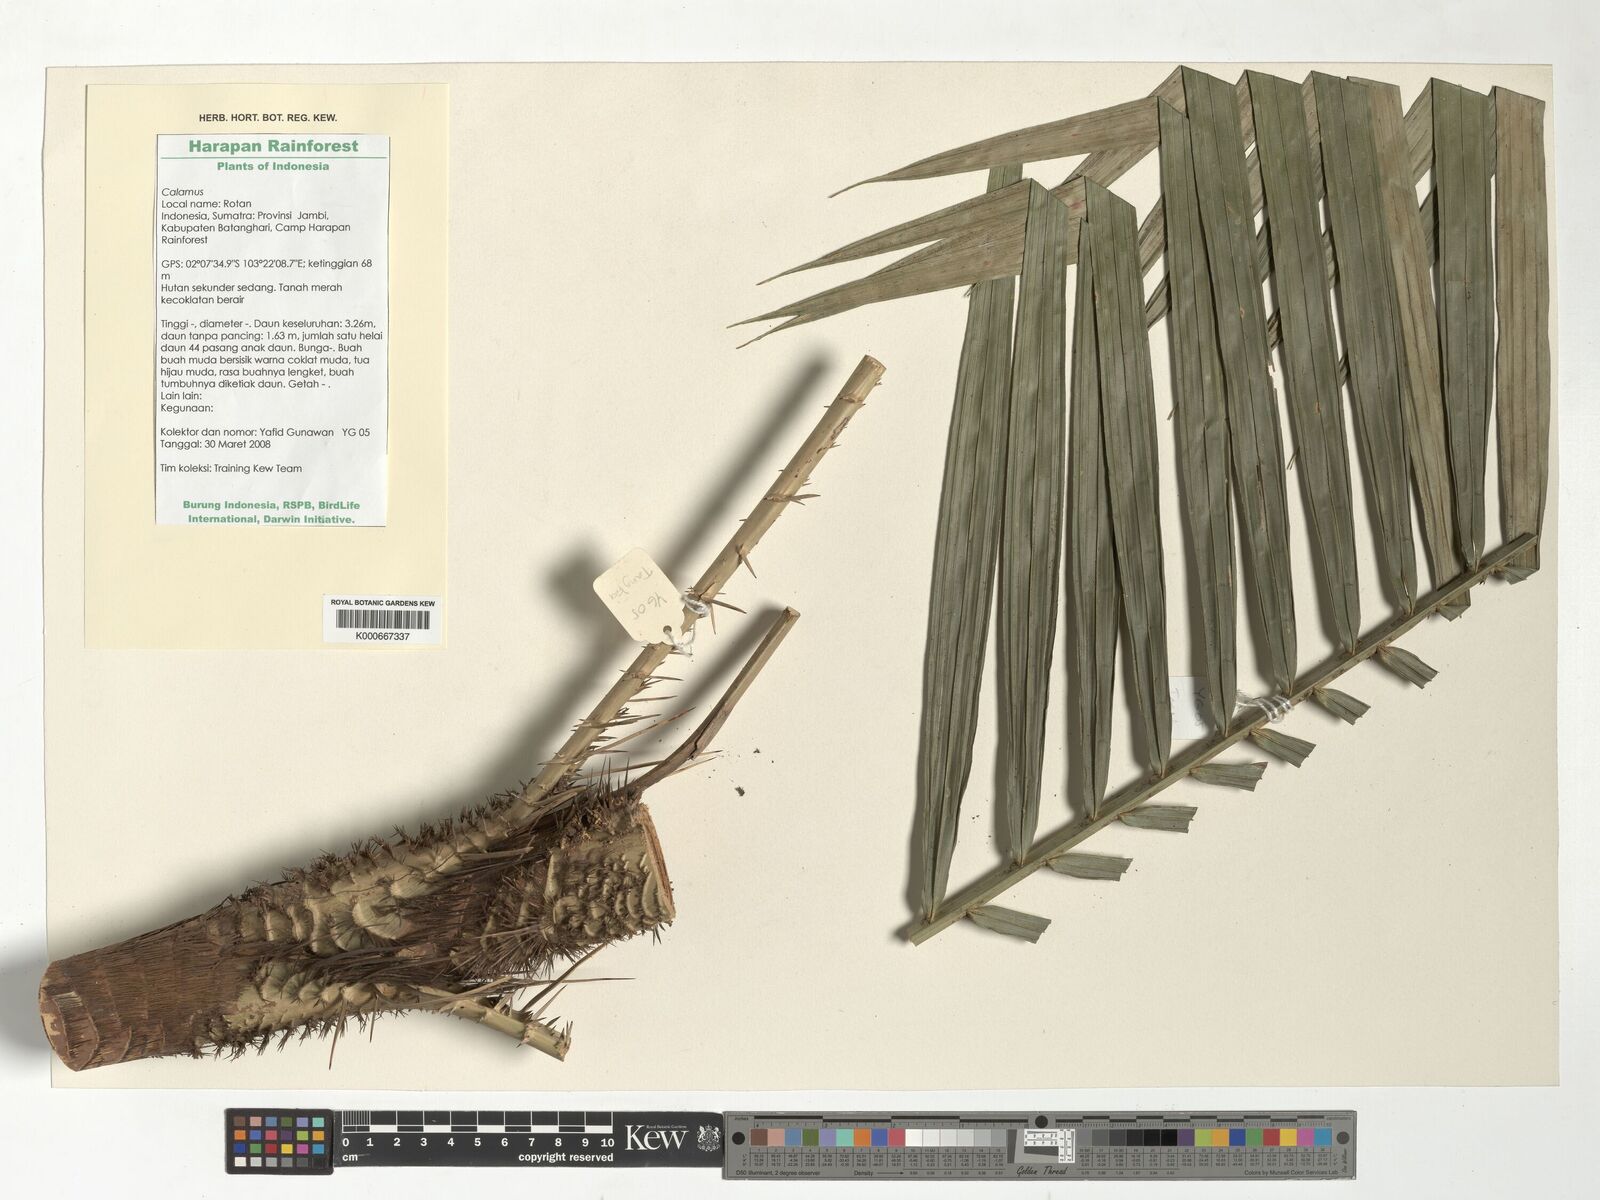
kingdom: Plantae
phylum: Tracheophyta
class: Liliopsida
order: Arecales
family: Arecaceae
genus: Calamus
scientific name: Calamus
